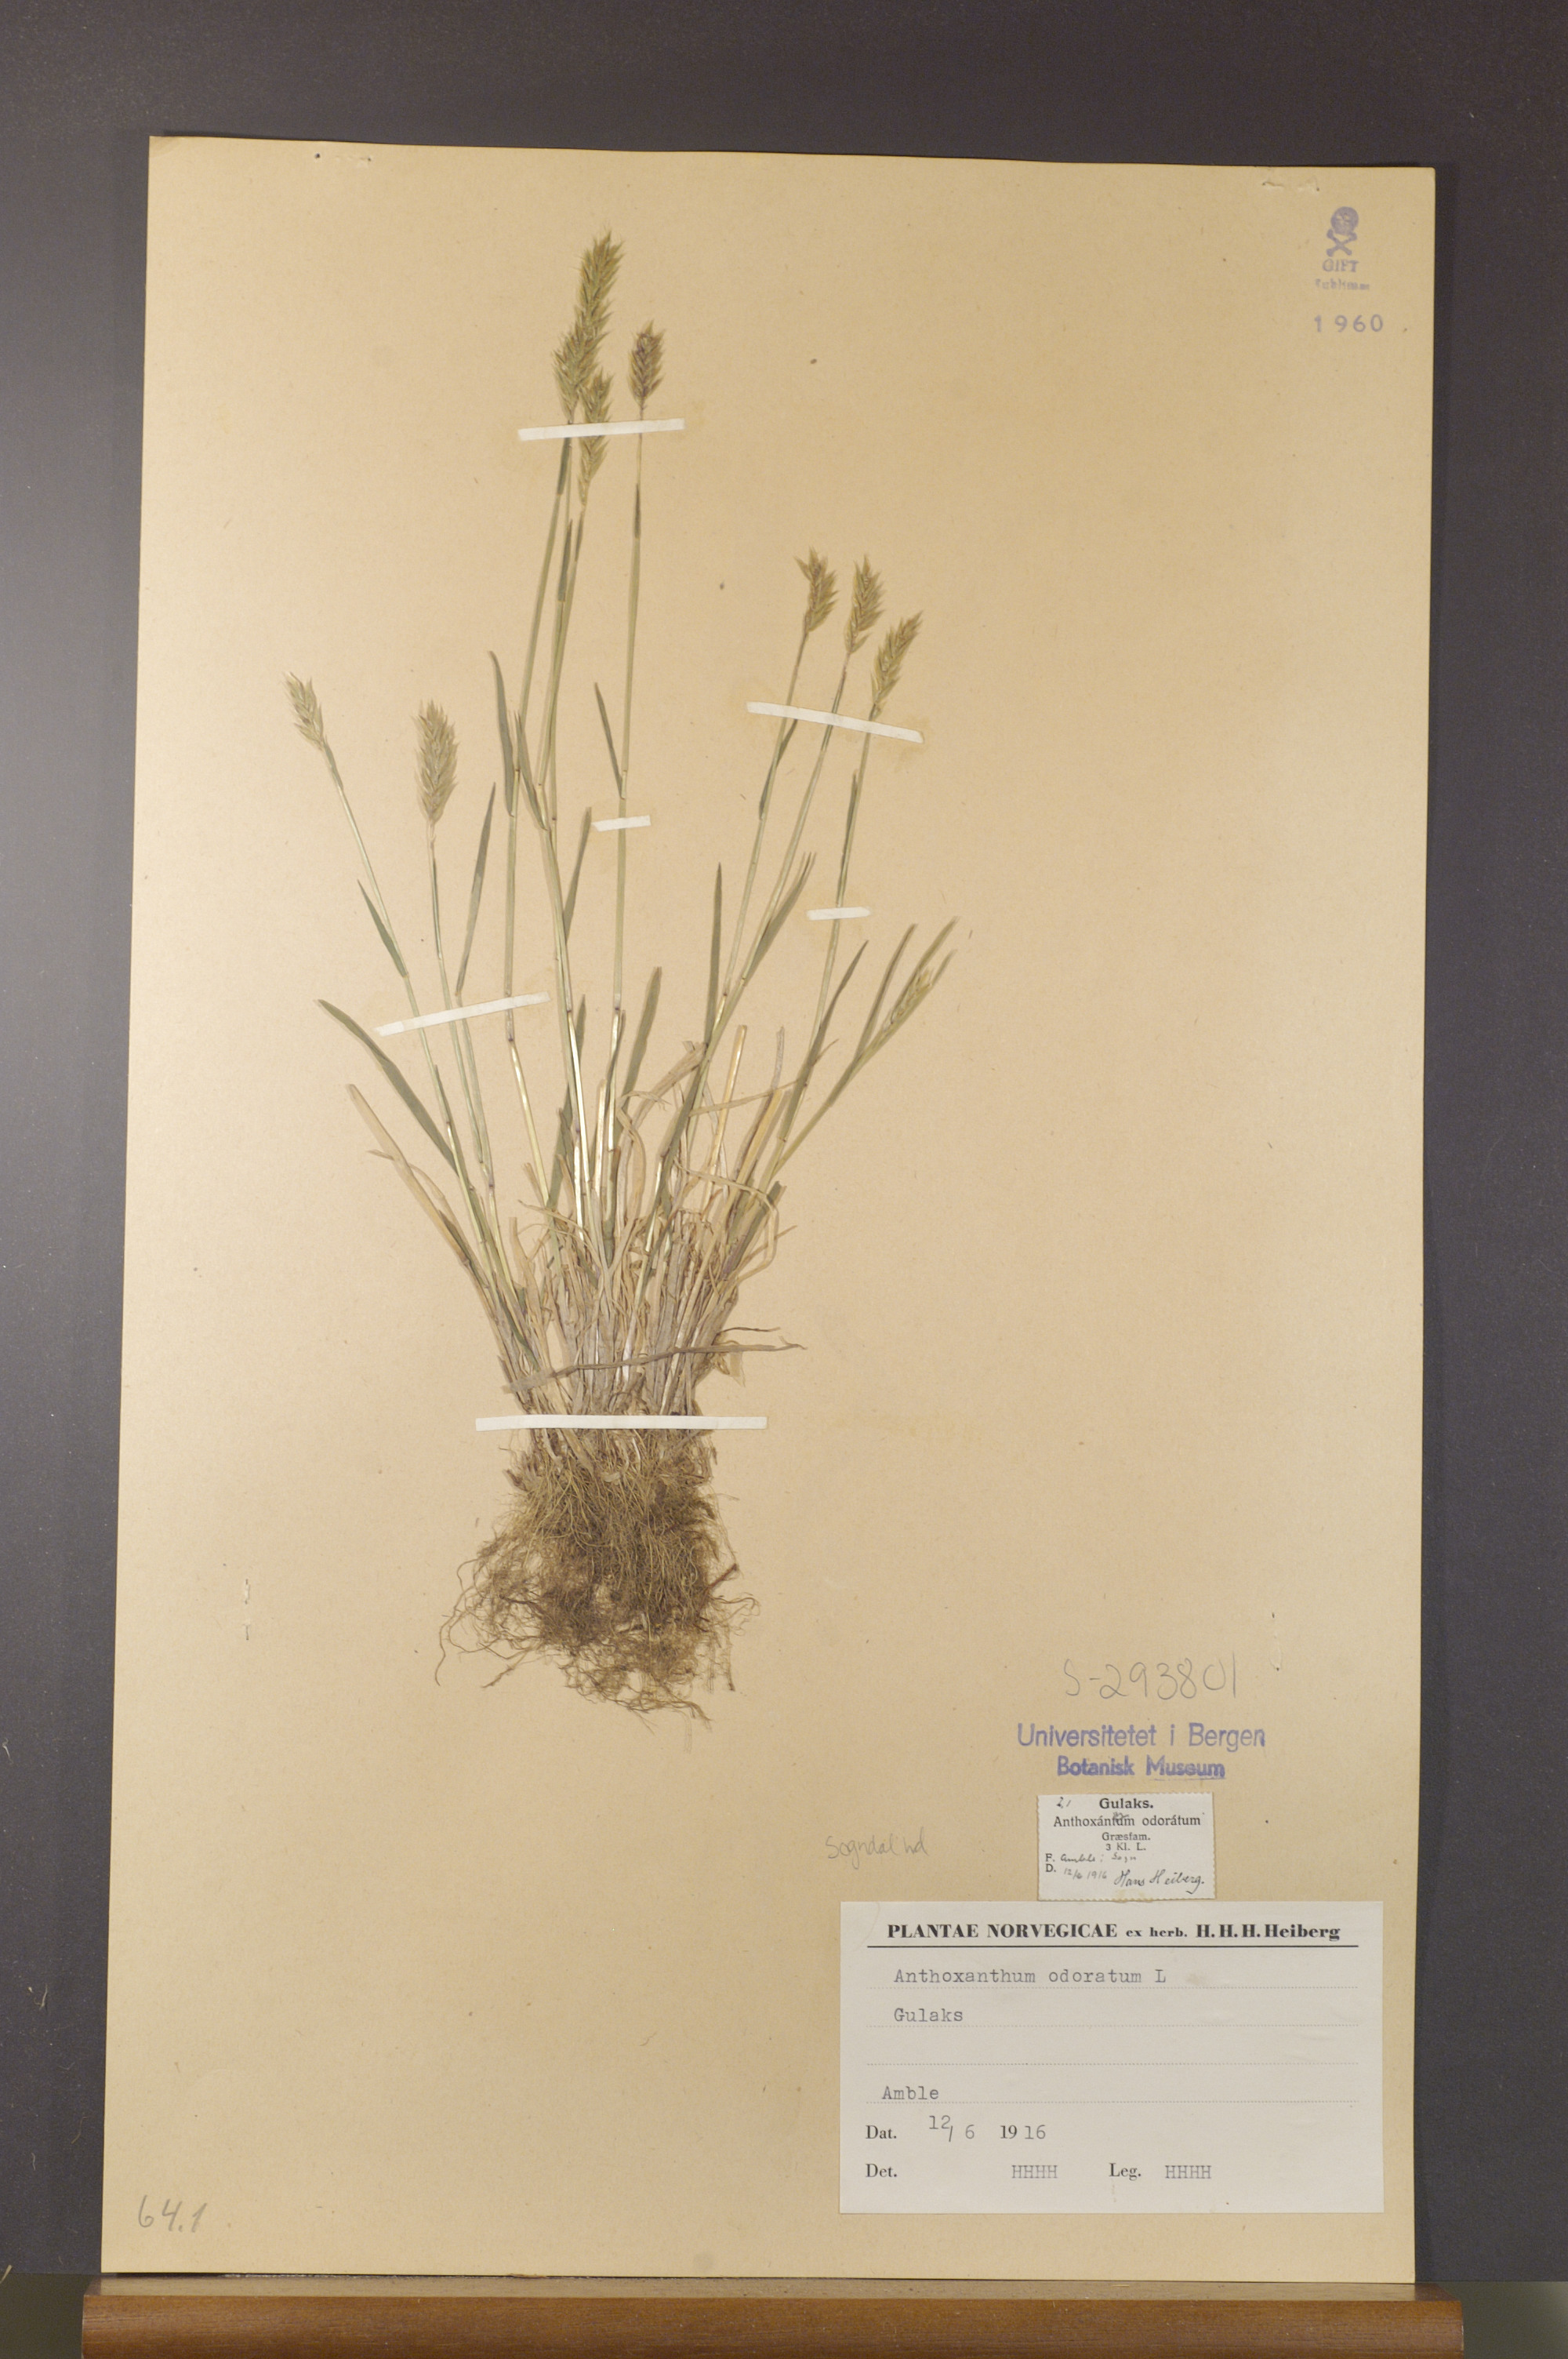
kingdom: Plantae
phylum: Tracheophyta
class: Liliopsida
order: Poales
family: Poaceae
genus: Anthoxanthum
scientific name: Anthoxanthum odoratum
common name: Sweet vernalgrass
